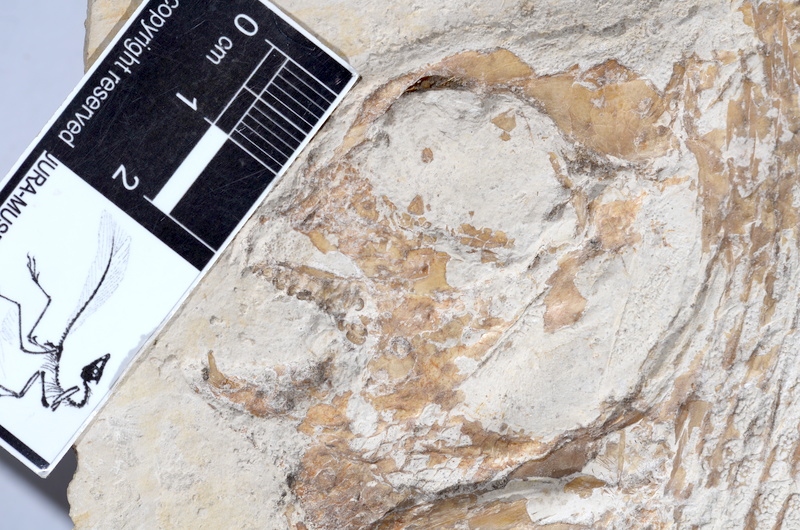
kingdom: Animalia
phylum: Chordata
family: Gyrodontidae
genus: Gyrodus
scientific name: Gyrodus hexagonus
